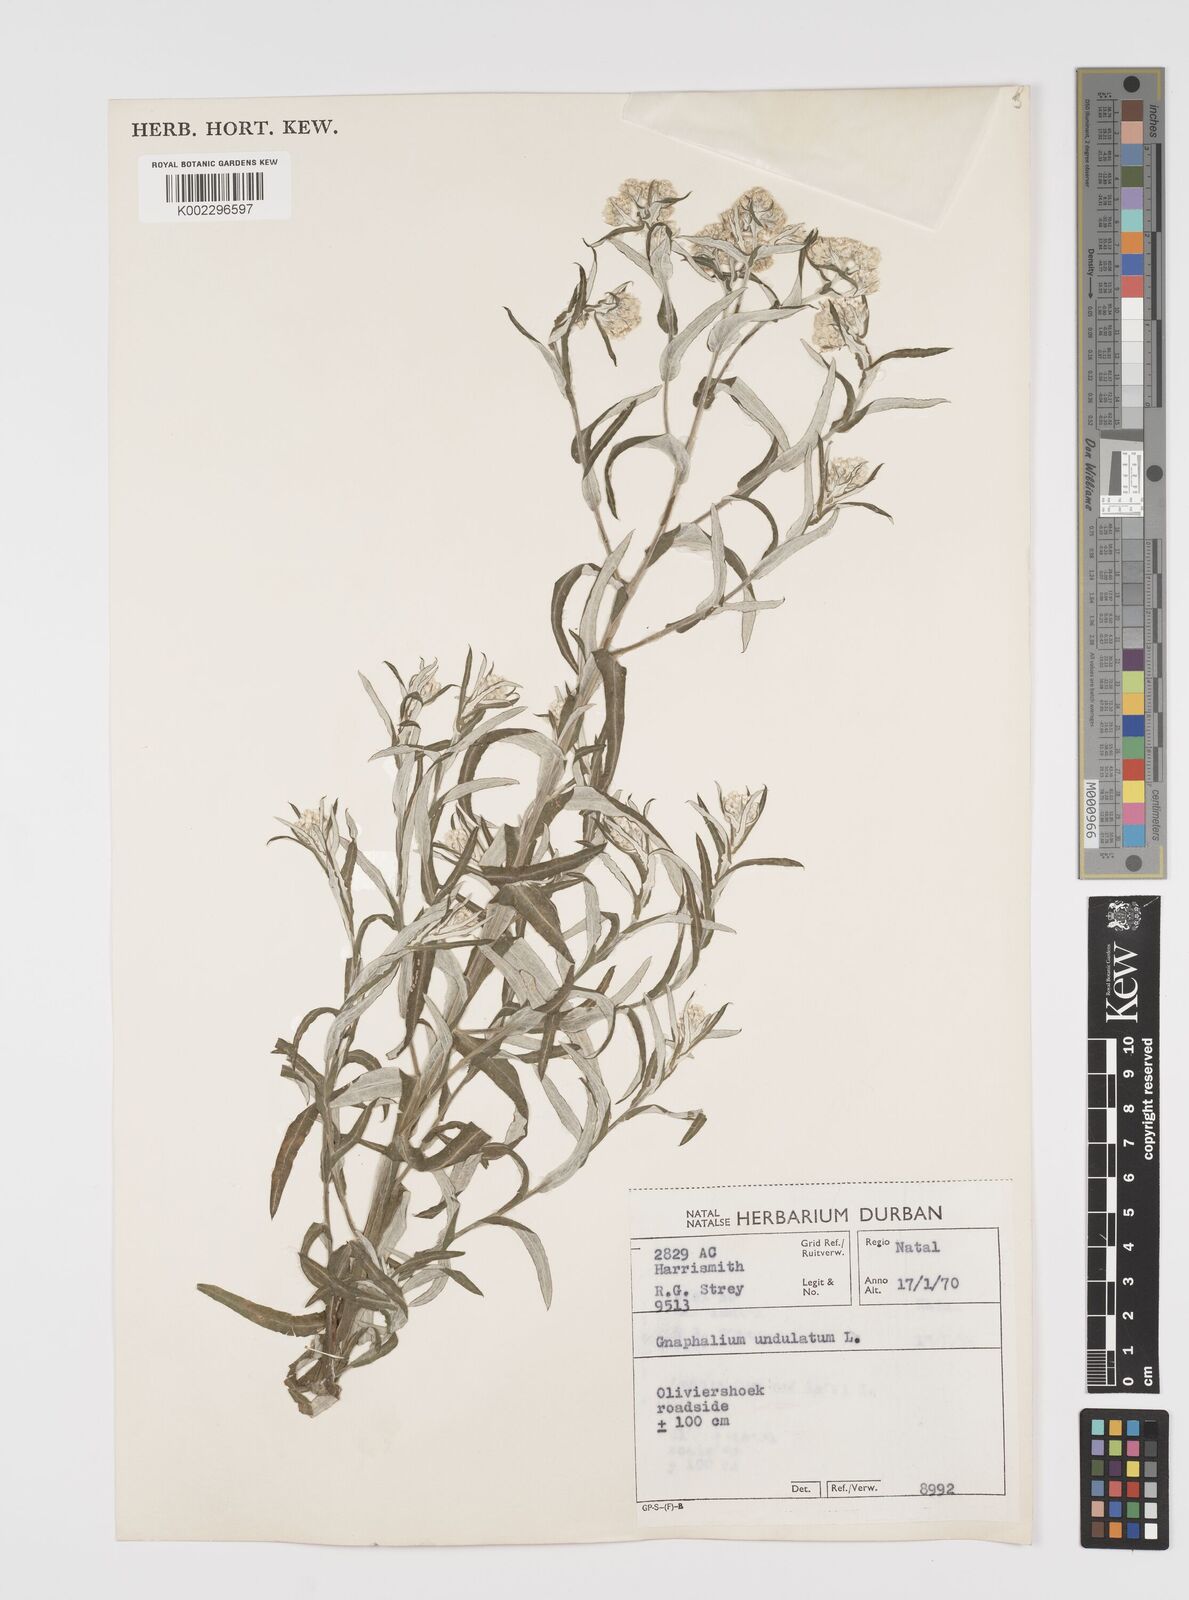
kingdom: Plantae
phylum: Tracheophyta
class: Magnoliopsida
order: Asterales
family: Asteraceae
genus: Pseudognaphalium
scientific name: Pseudognaphalium undulatum
